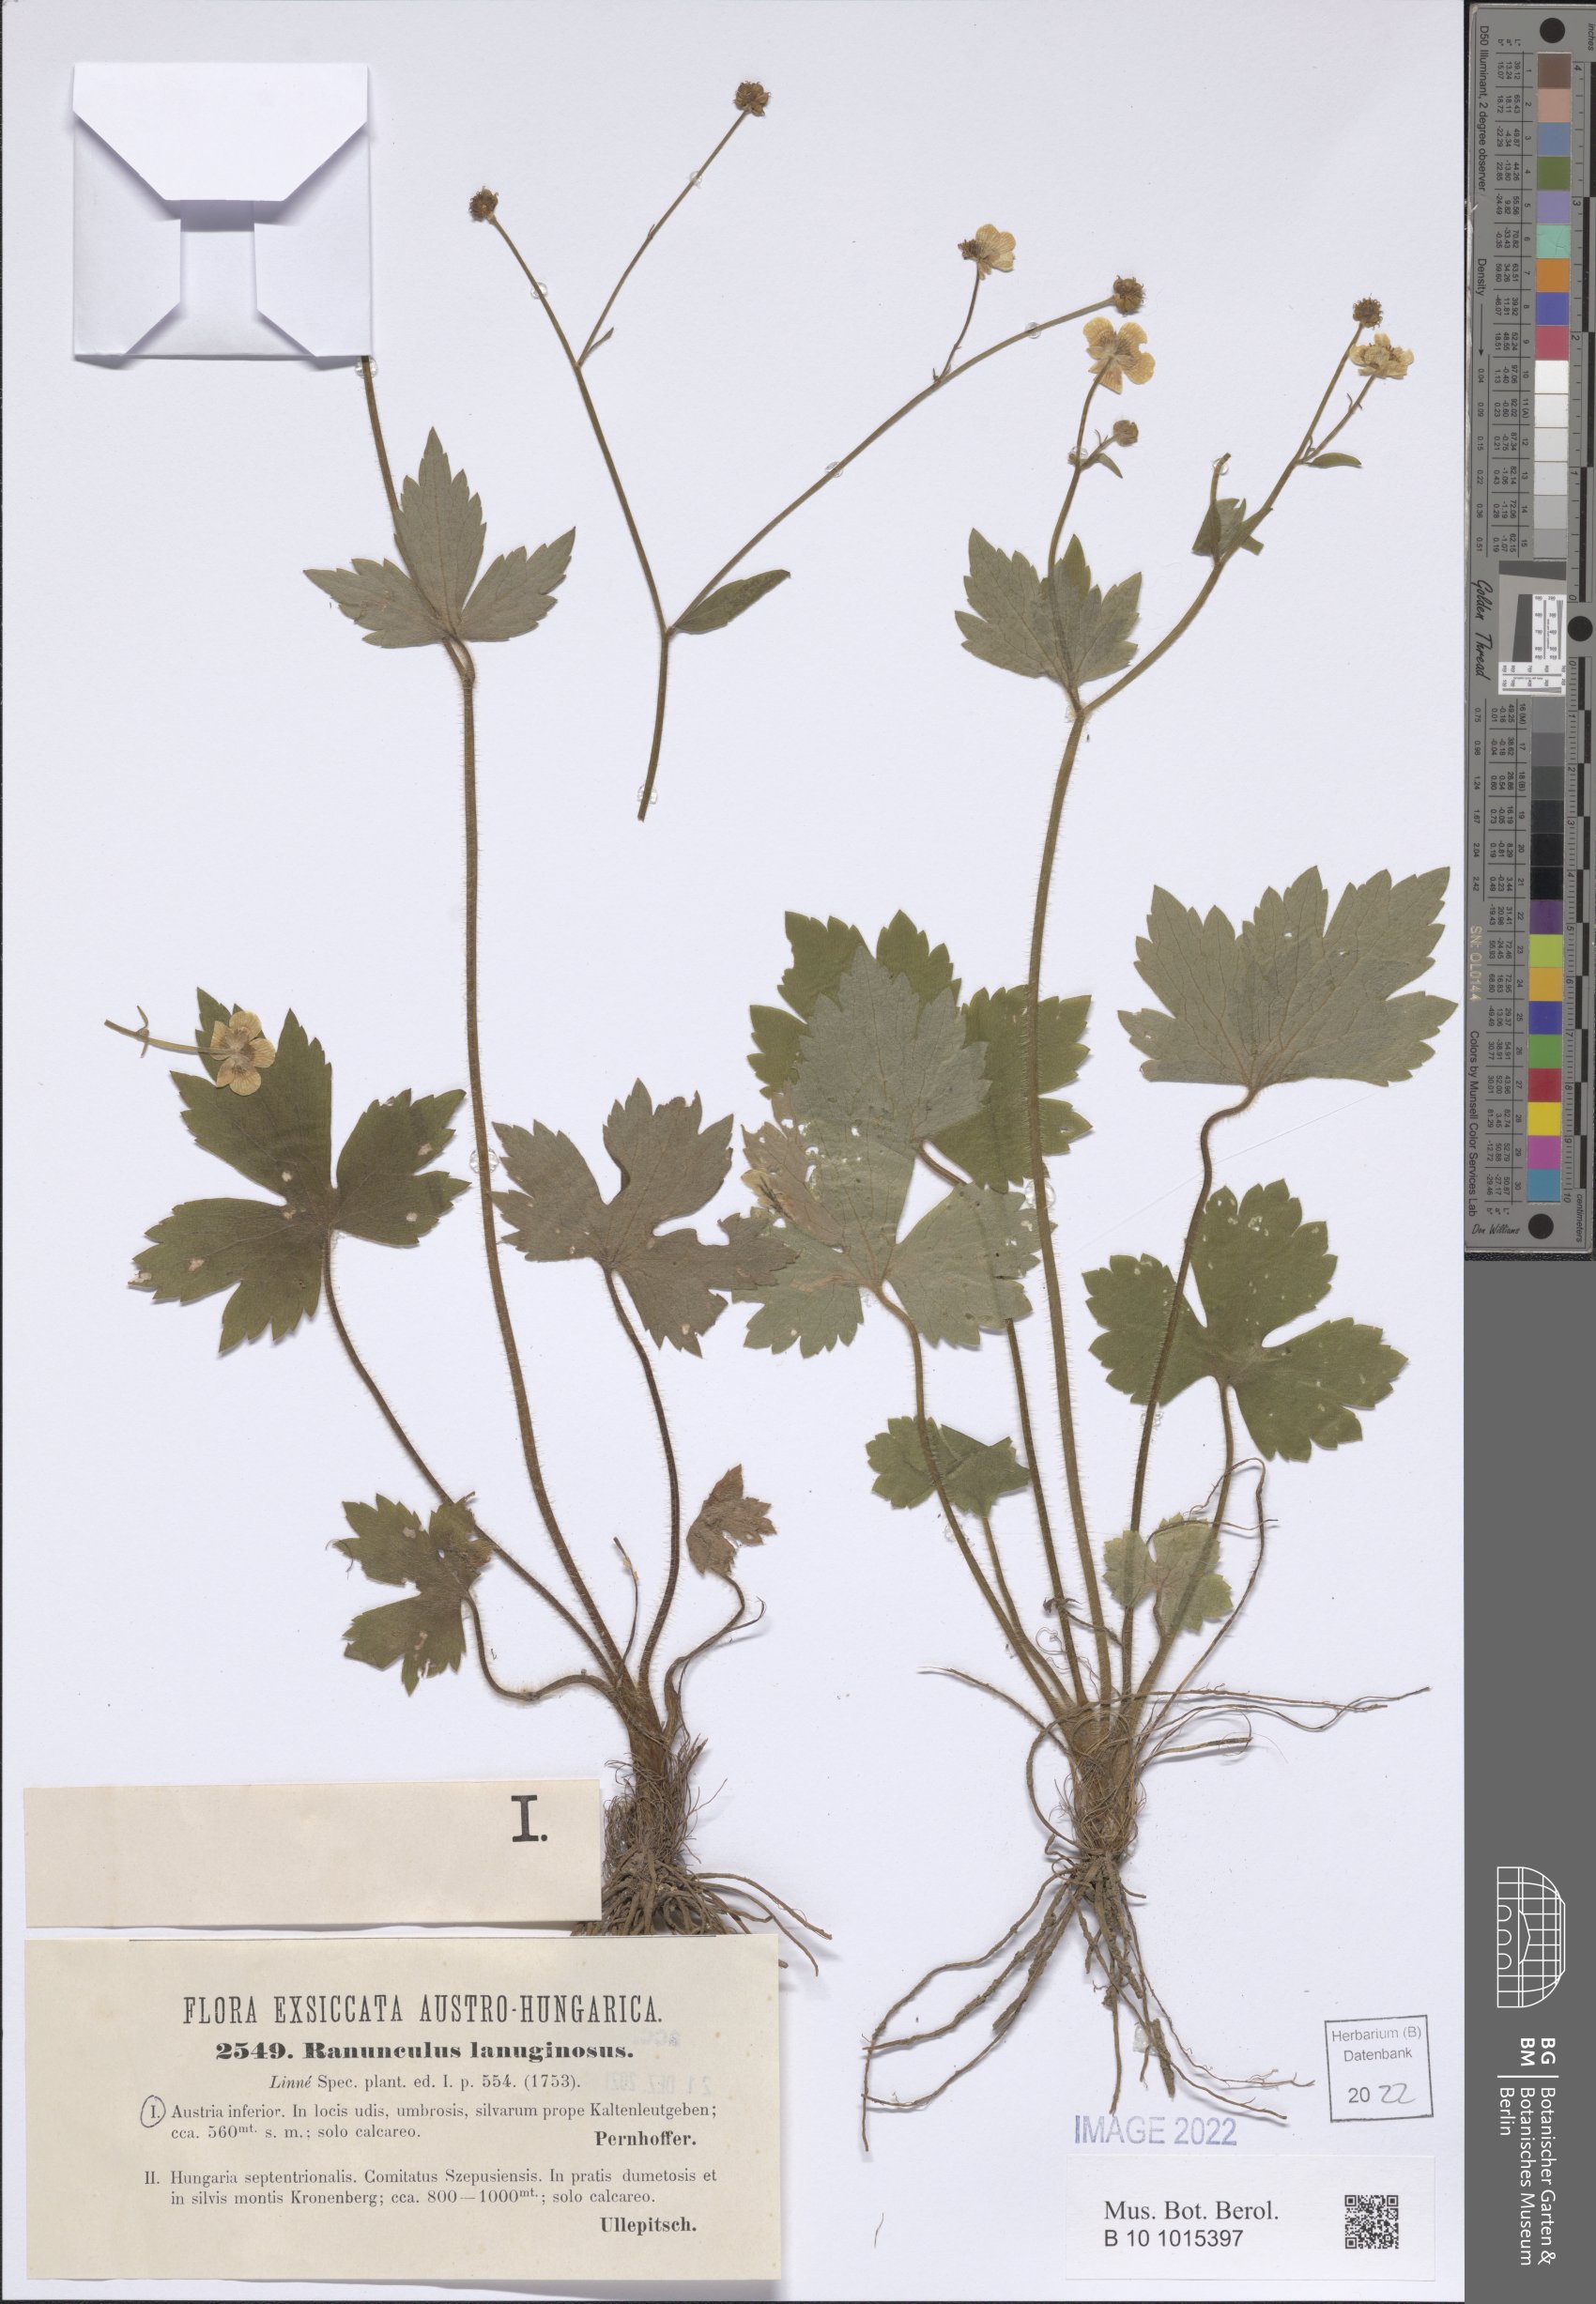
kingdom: Plantae
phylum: Tracheophyta
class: Magnoliopsida
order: Ranunculales
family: Ranunculaceae
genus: Ranunculus
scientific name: Ranunculus lanuginosus
